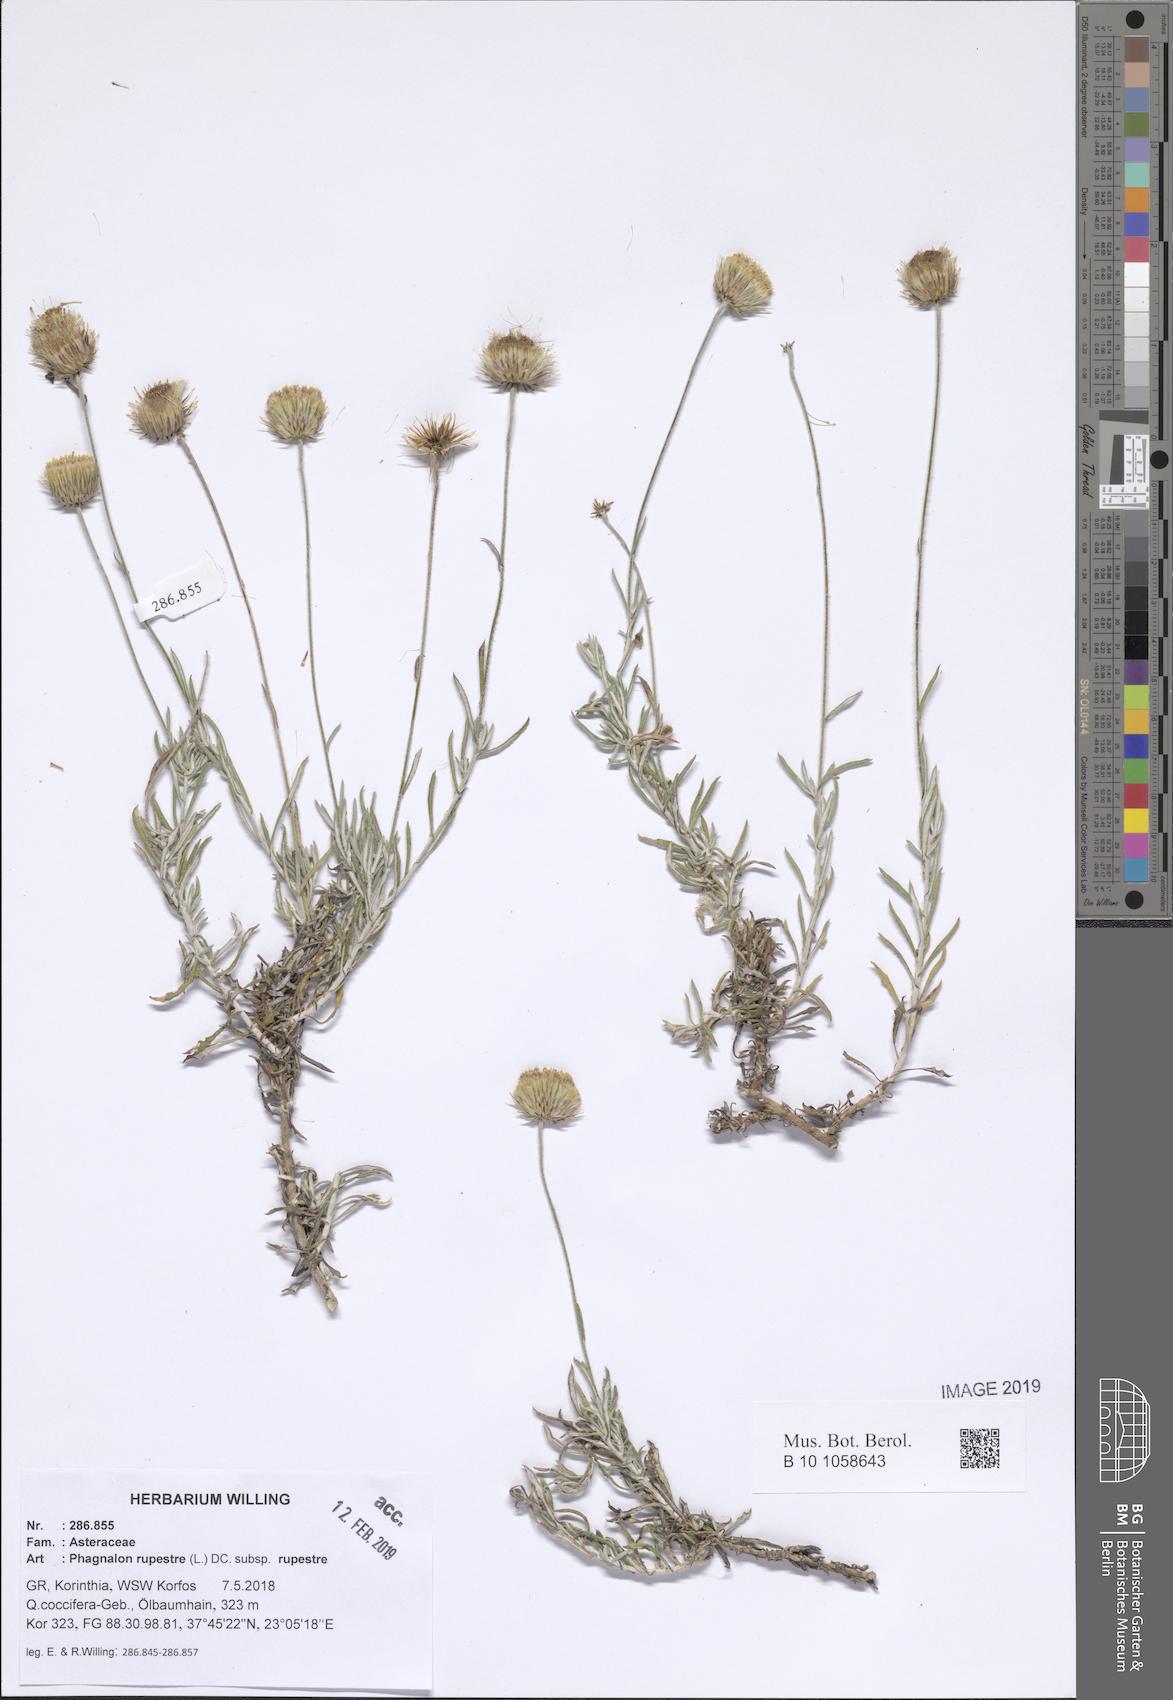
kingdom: Plantae
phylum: Tracheophyta
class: Magnoliopsida
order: Asterales
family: Asteraceae
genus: Phagnalon
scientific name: Phagnalon rupestre
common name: Rock phagnalon
